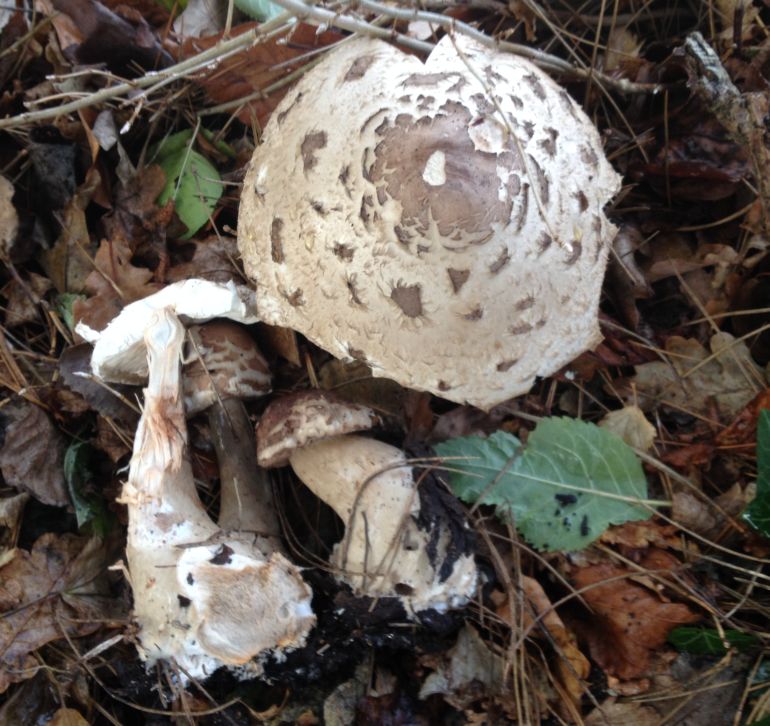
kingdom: Fungi
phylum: Basidiomycota
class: Agaricomycetes
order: Agaricales
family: Agaricaceae
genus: Chlorophyllum
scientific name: Chlorophyllum rhacodes
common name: ægte rabarberhat
